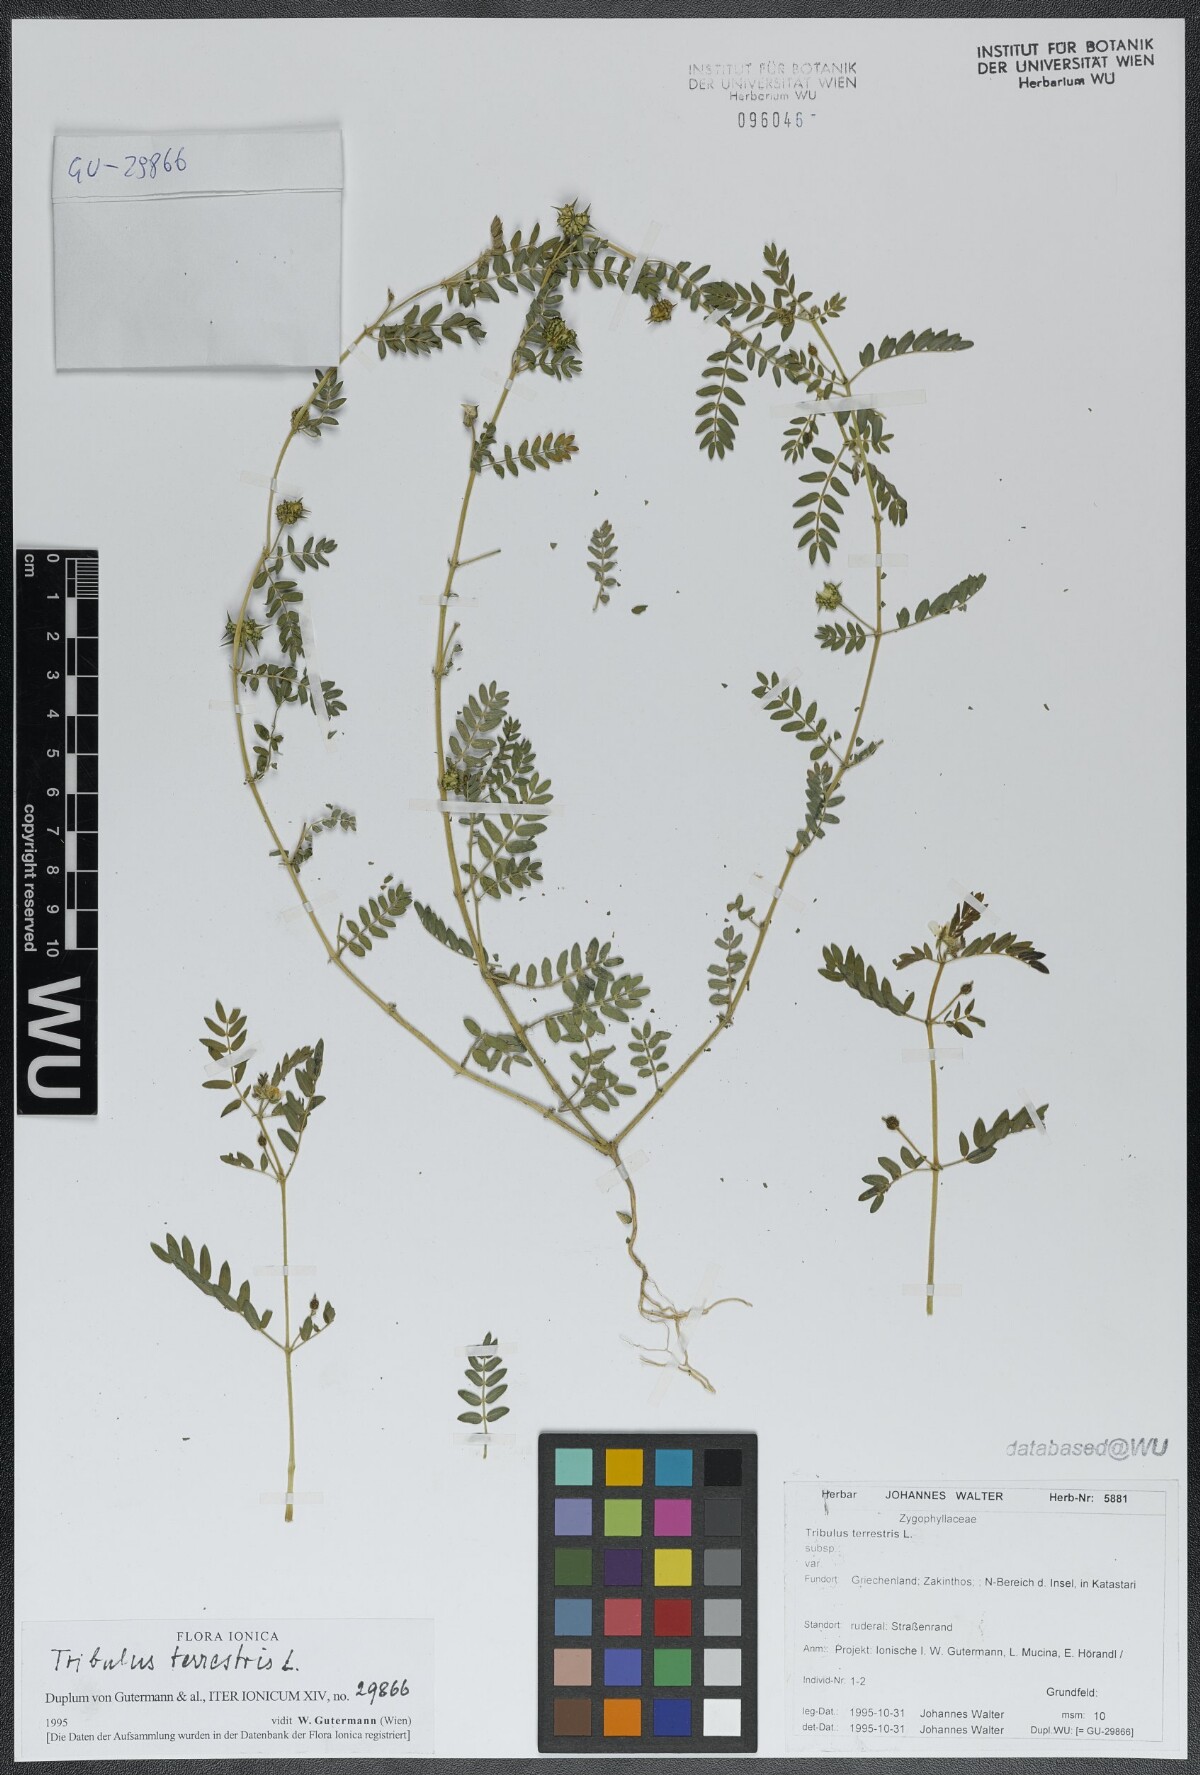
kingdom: Plantae
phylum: Tracheophyta
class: Magnoliopsida
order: Zygophyllales
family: Zygophyllaceae
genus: Tribulus
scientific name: Tribulus terrestris
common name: Puncturevine
